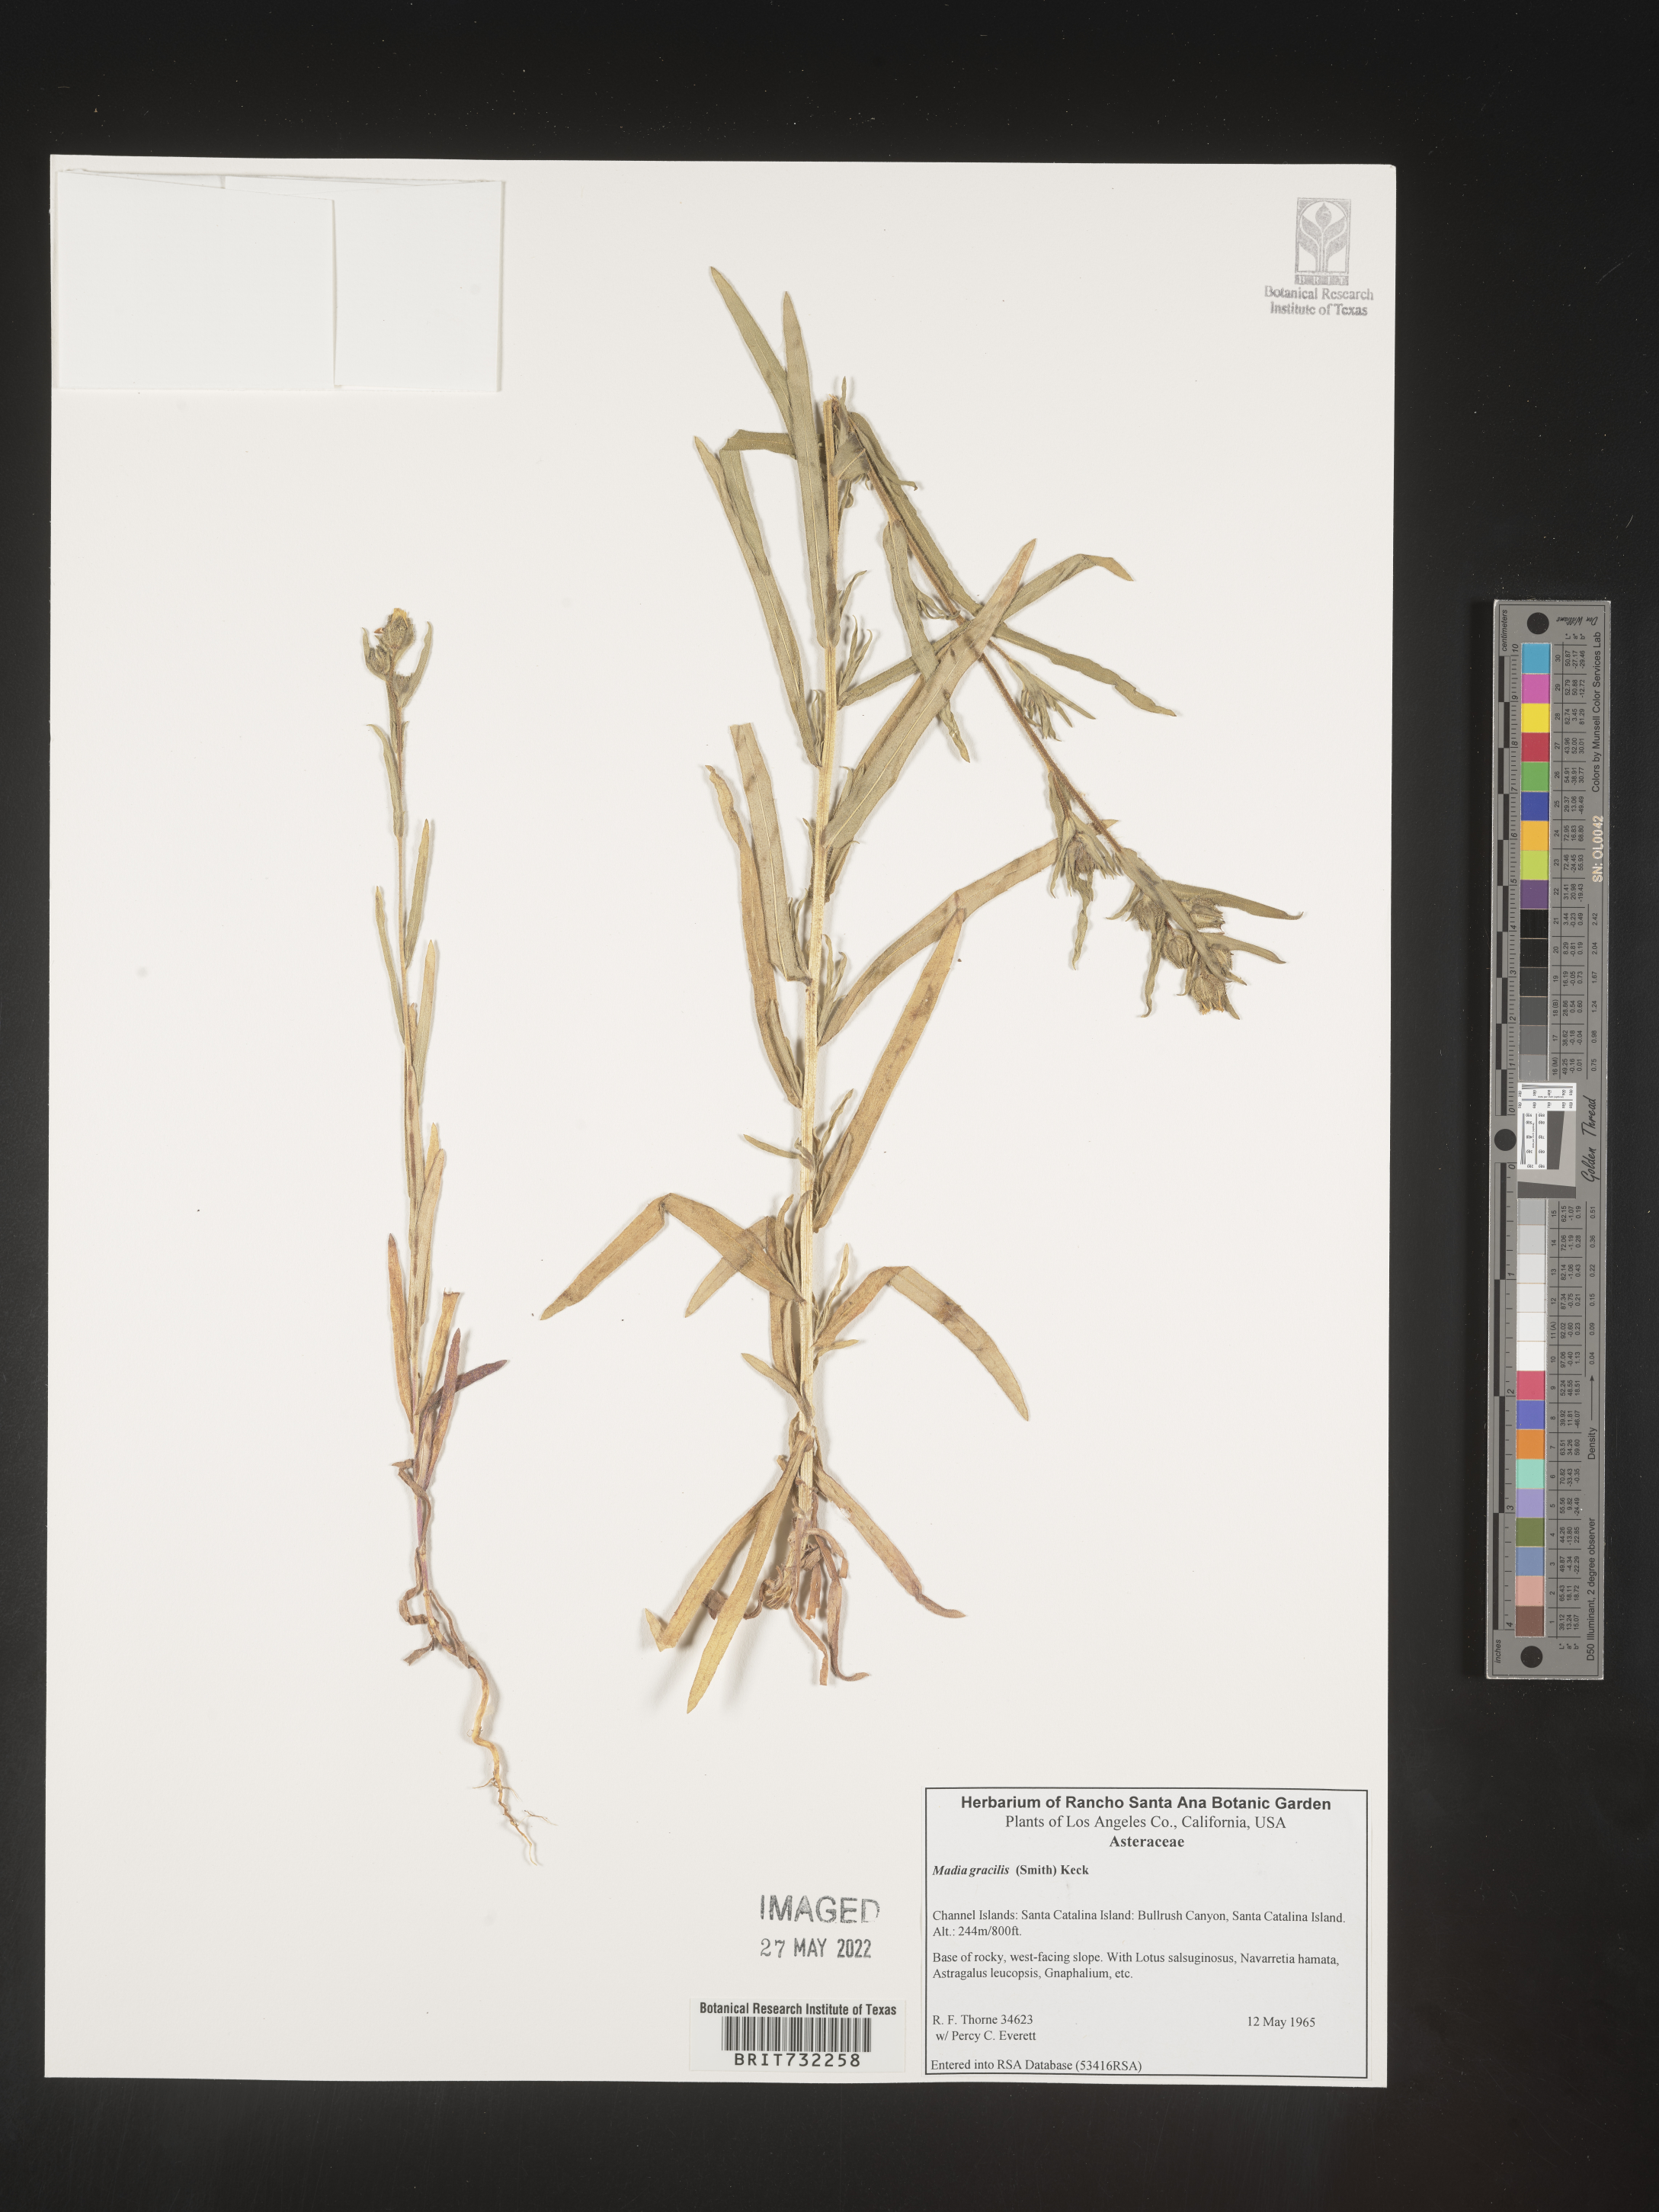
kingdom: Plantae
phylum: Tracheophyta
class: Magnoliopsida
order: Asterales
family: Asteraceae
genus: Madia
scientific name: Madia gracilis
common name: Grassy tarweed
